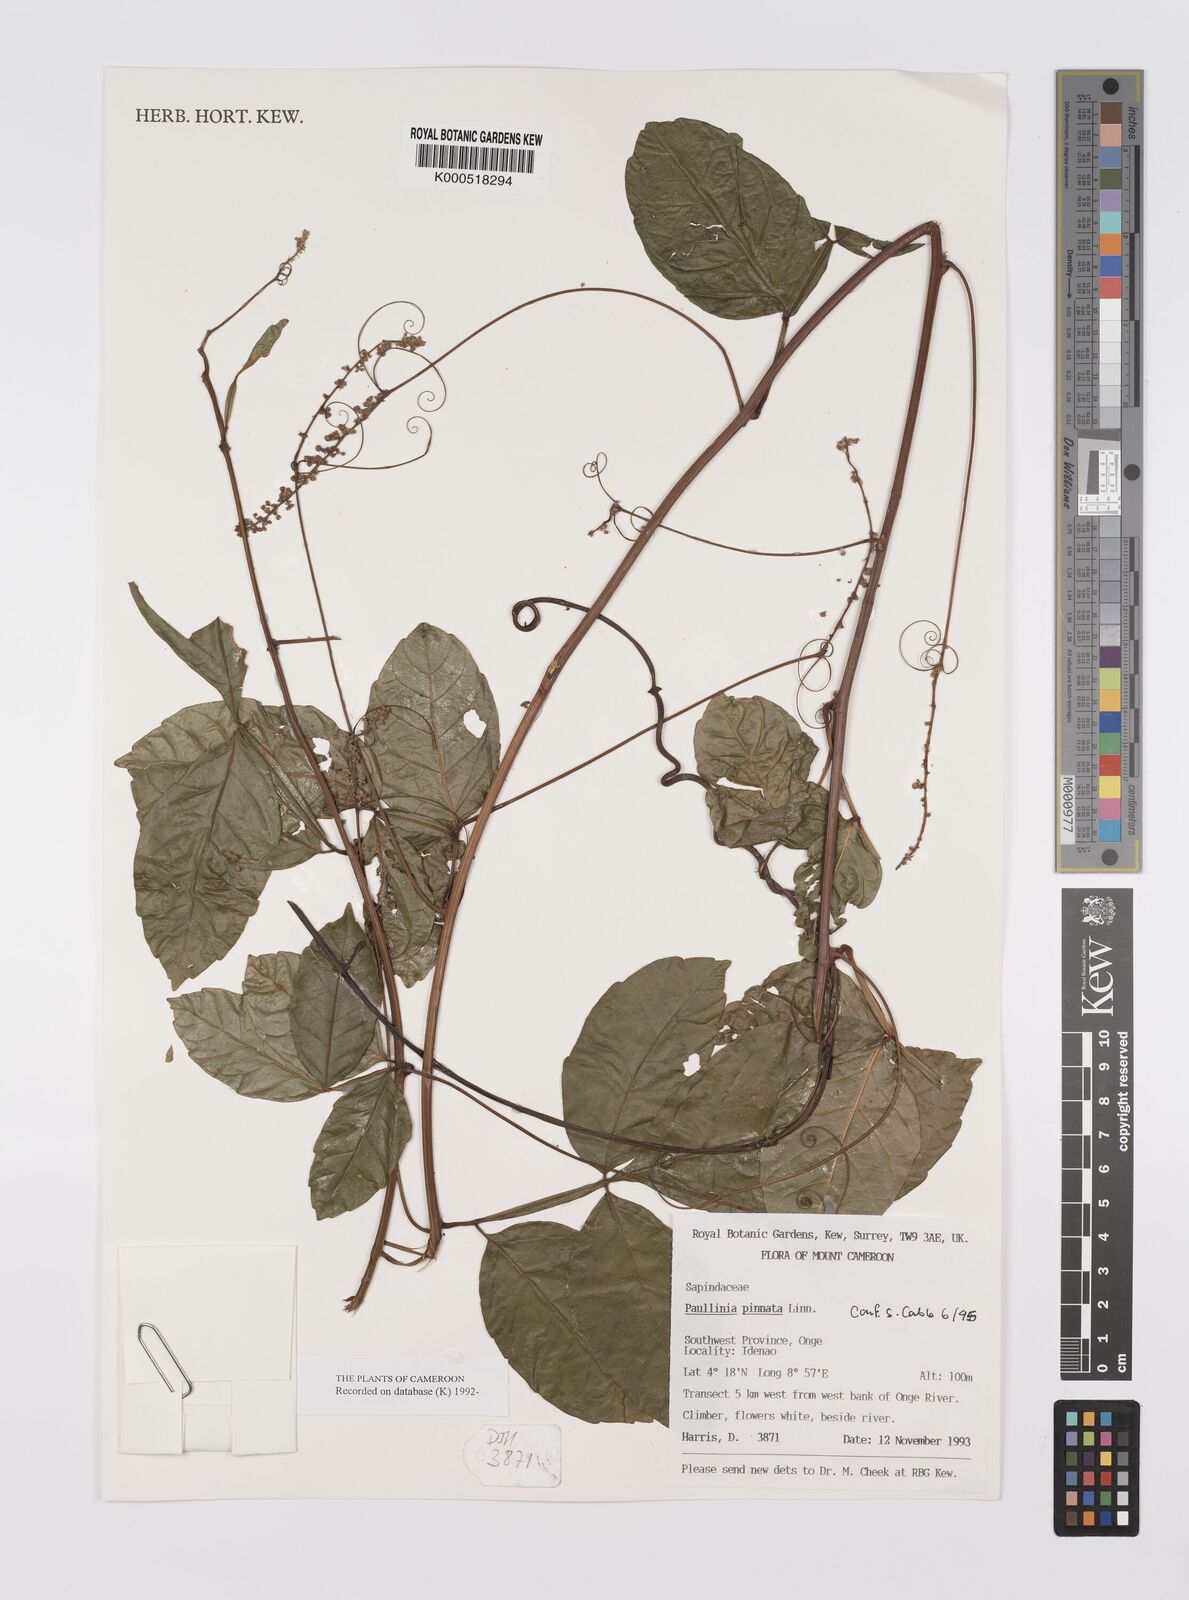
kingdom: Plantae
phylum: Tracheophyta
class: Magnoliopsida
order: Sapindales
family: Sapindaceae
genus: Paullinia
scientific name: Paullinia pinnata
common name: Barbasco
